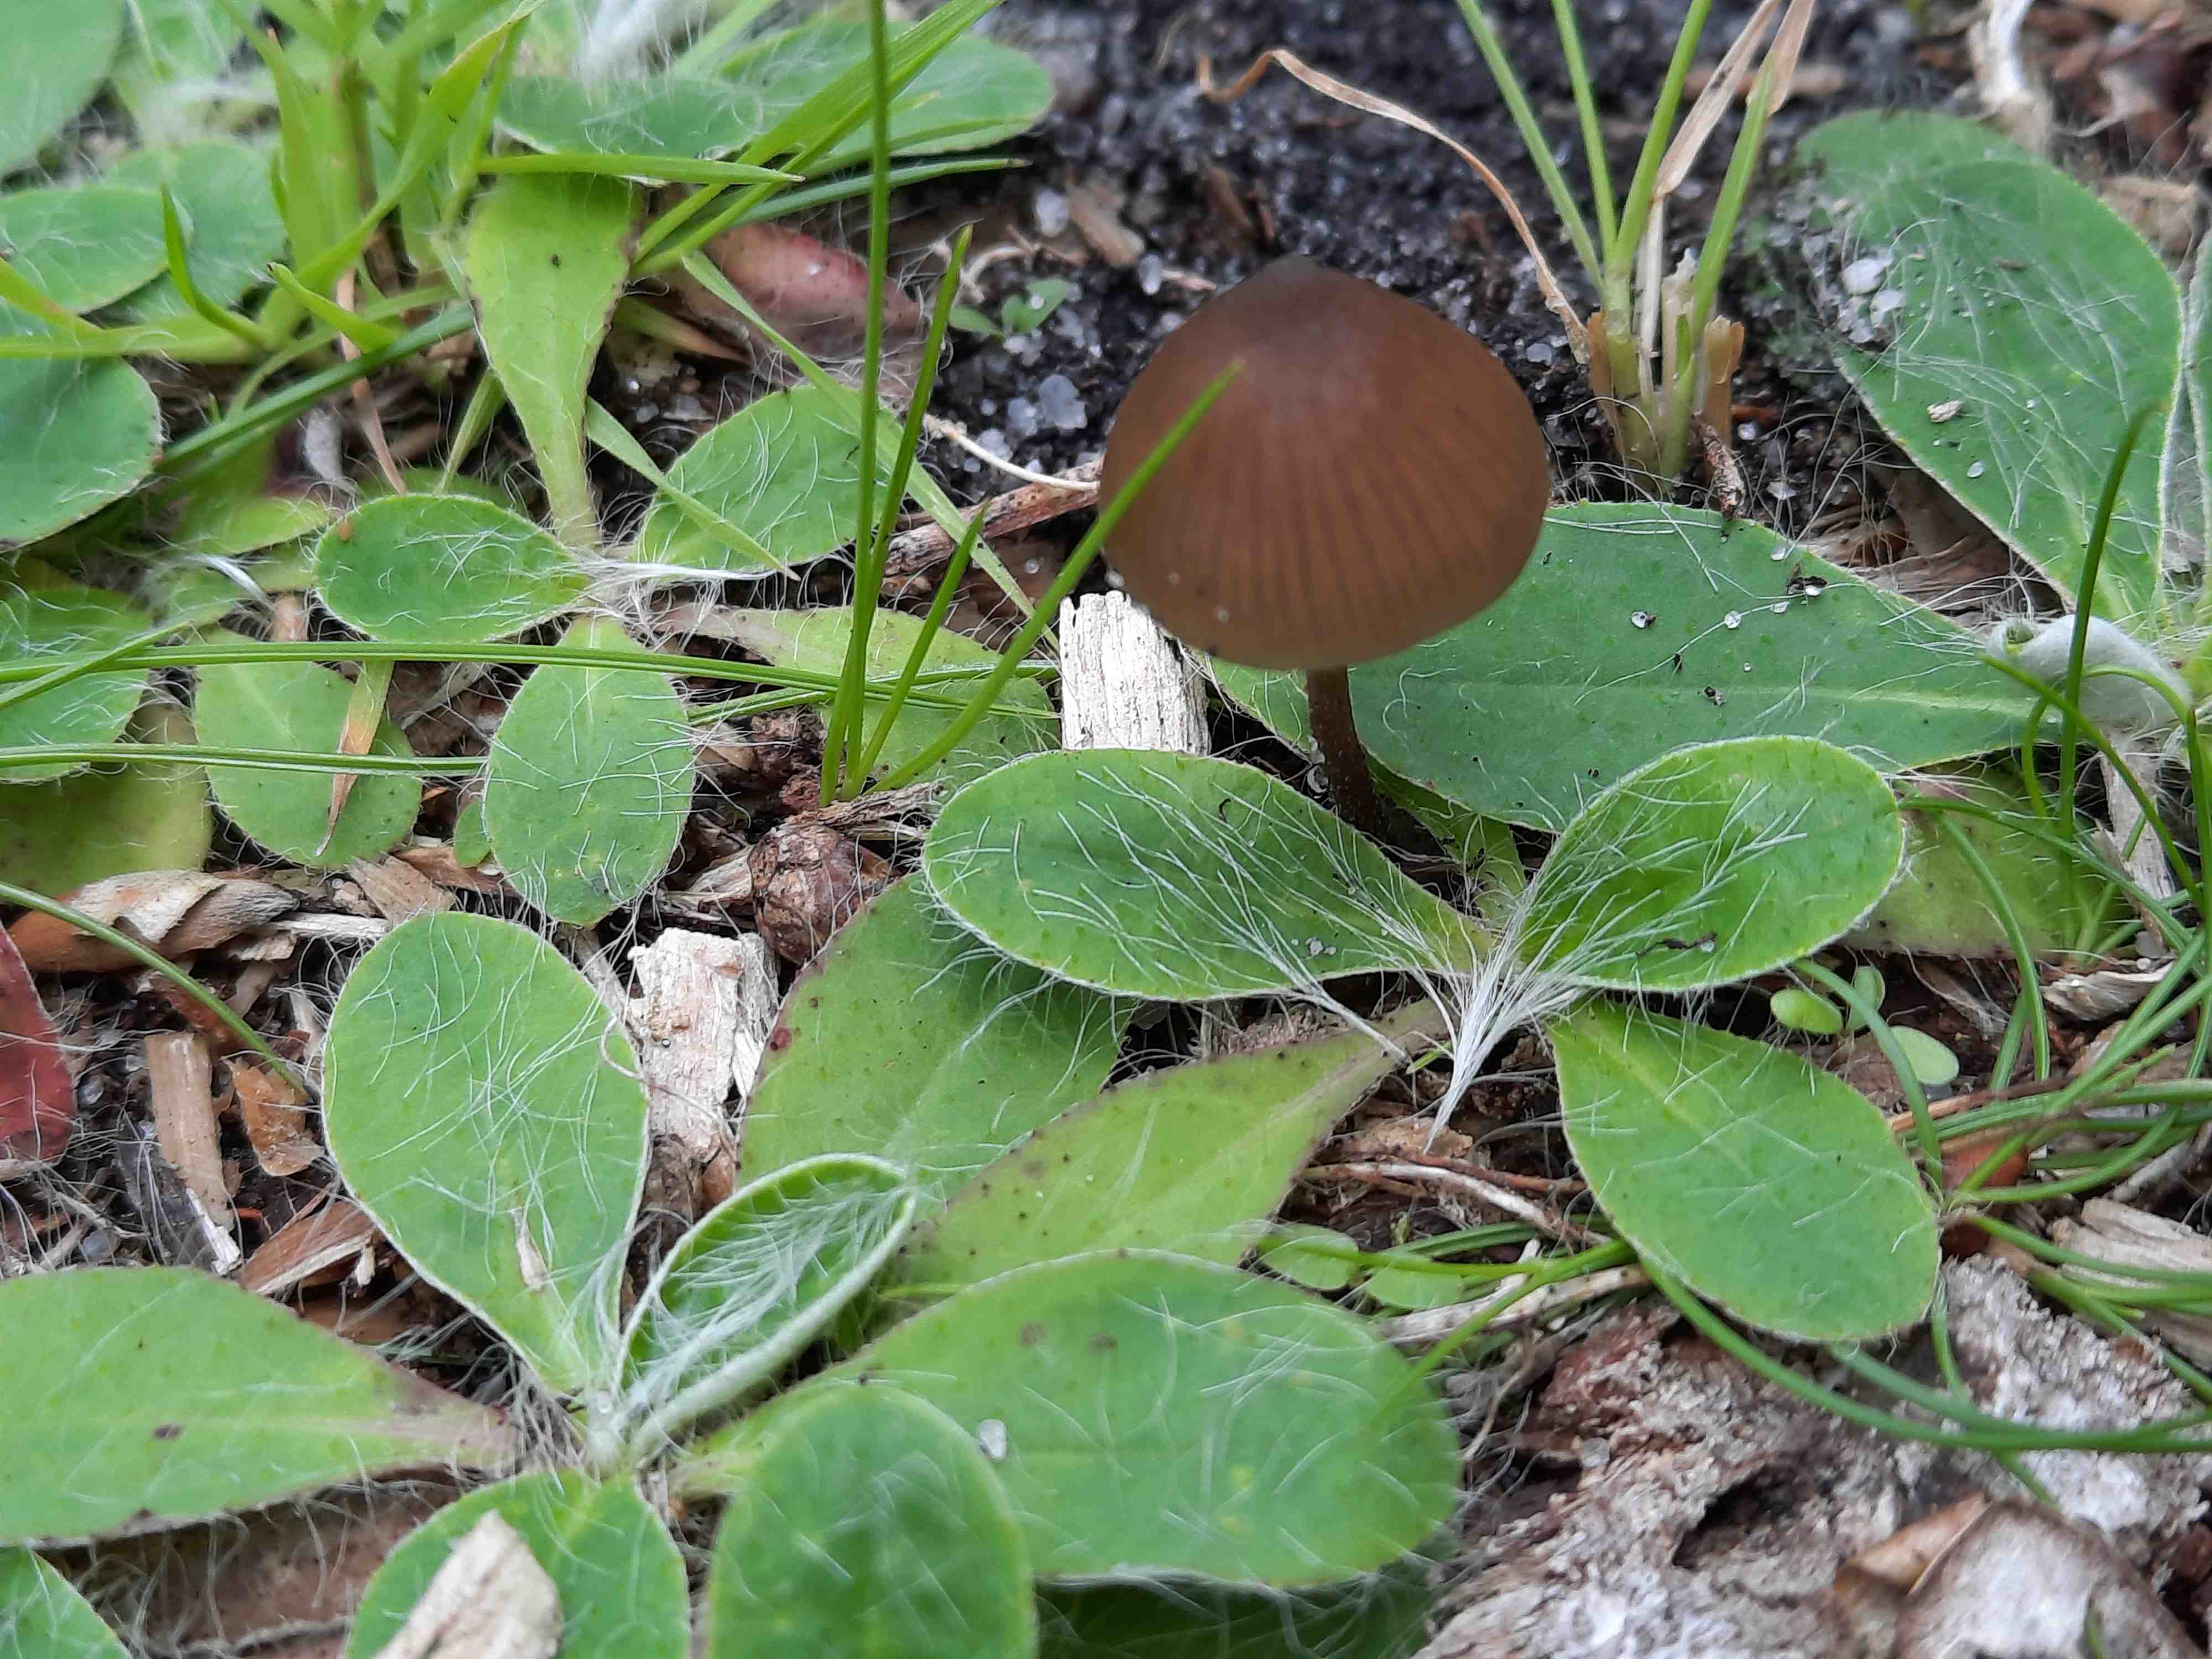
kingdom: Fungi
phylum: Basidiomycota
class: Agaricomycetes
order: Agaricales
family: Entolomataceae
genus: Entoloma
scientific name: Entoloma
